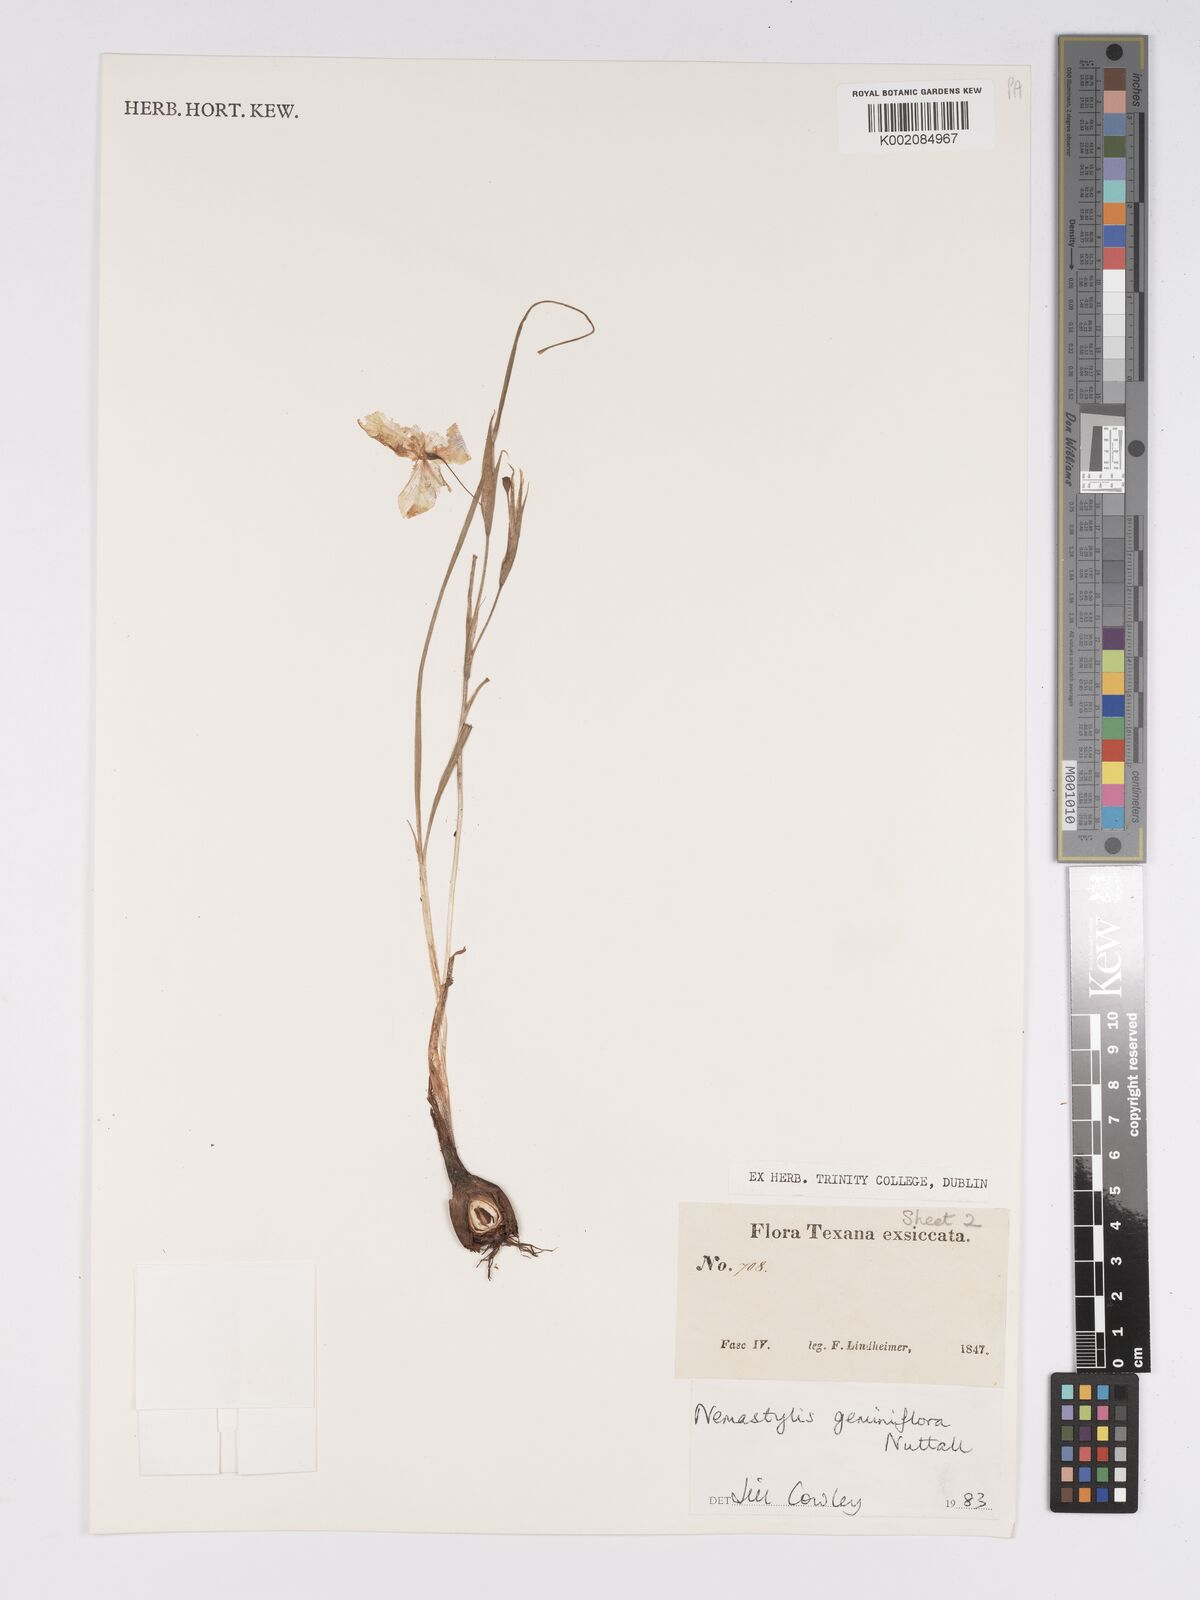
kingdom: Plantae
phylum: Tracheophyta
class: Liliopsida
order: Asparagales
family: Iridaceae
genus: Nemastylis
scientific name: Nemastylis geminiflora
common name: Prairie celestial
